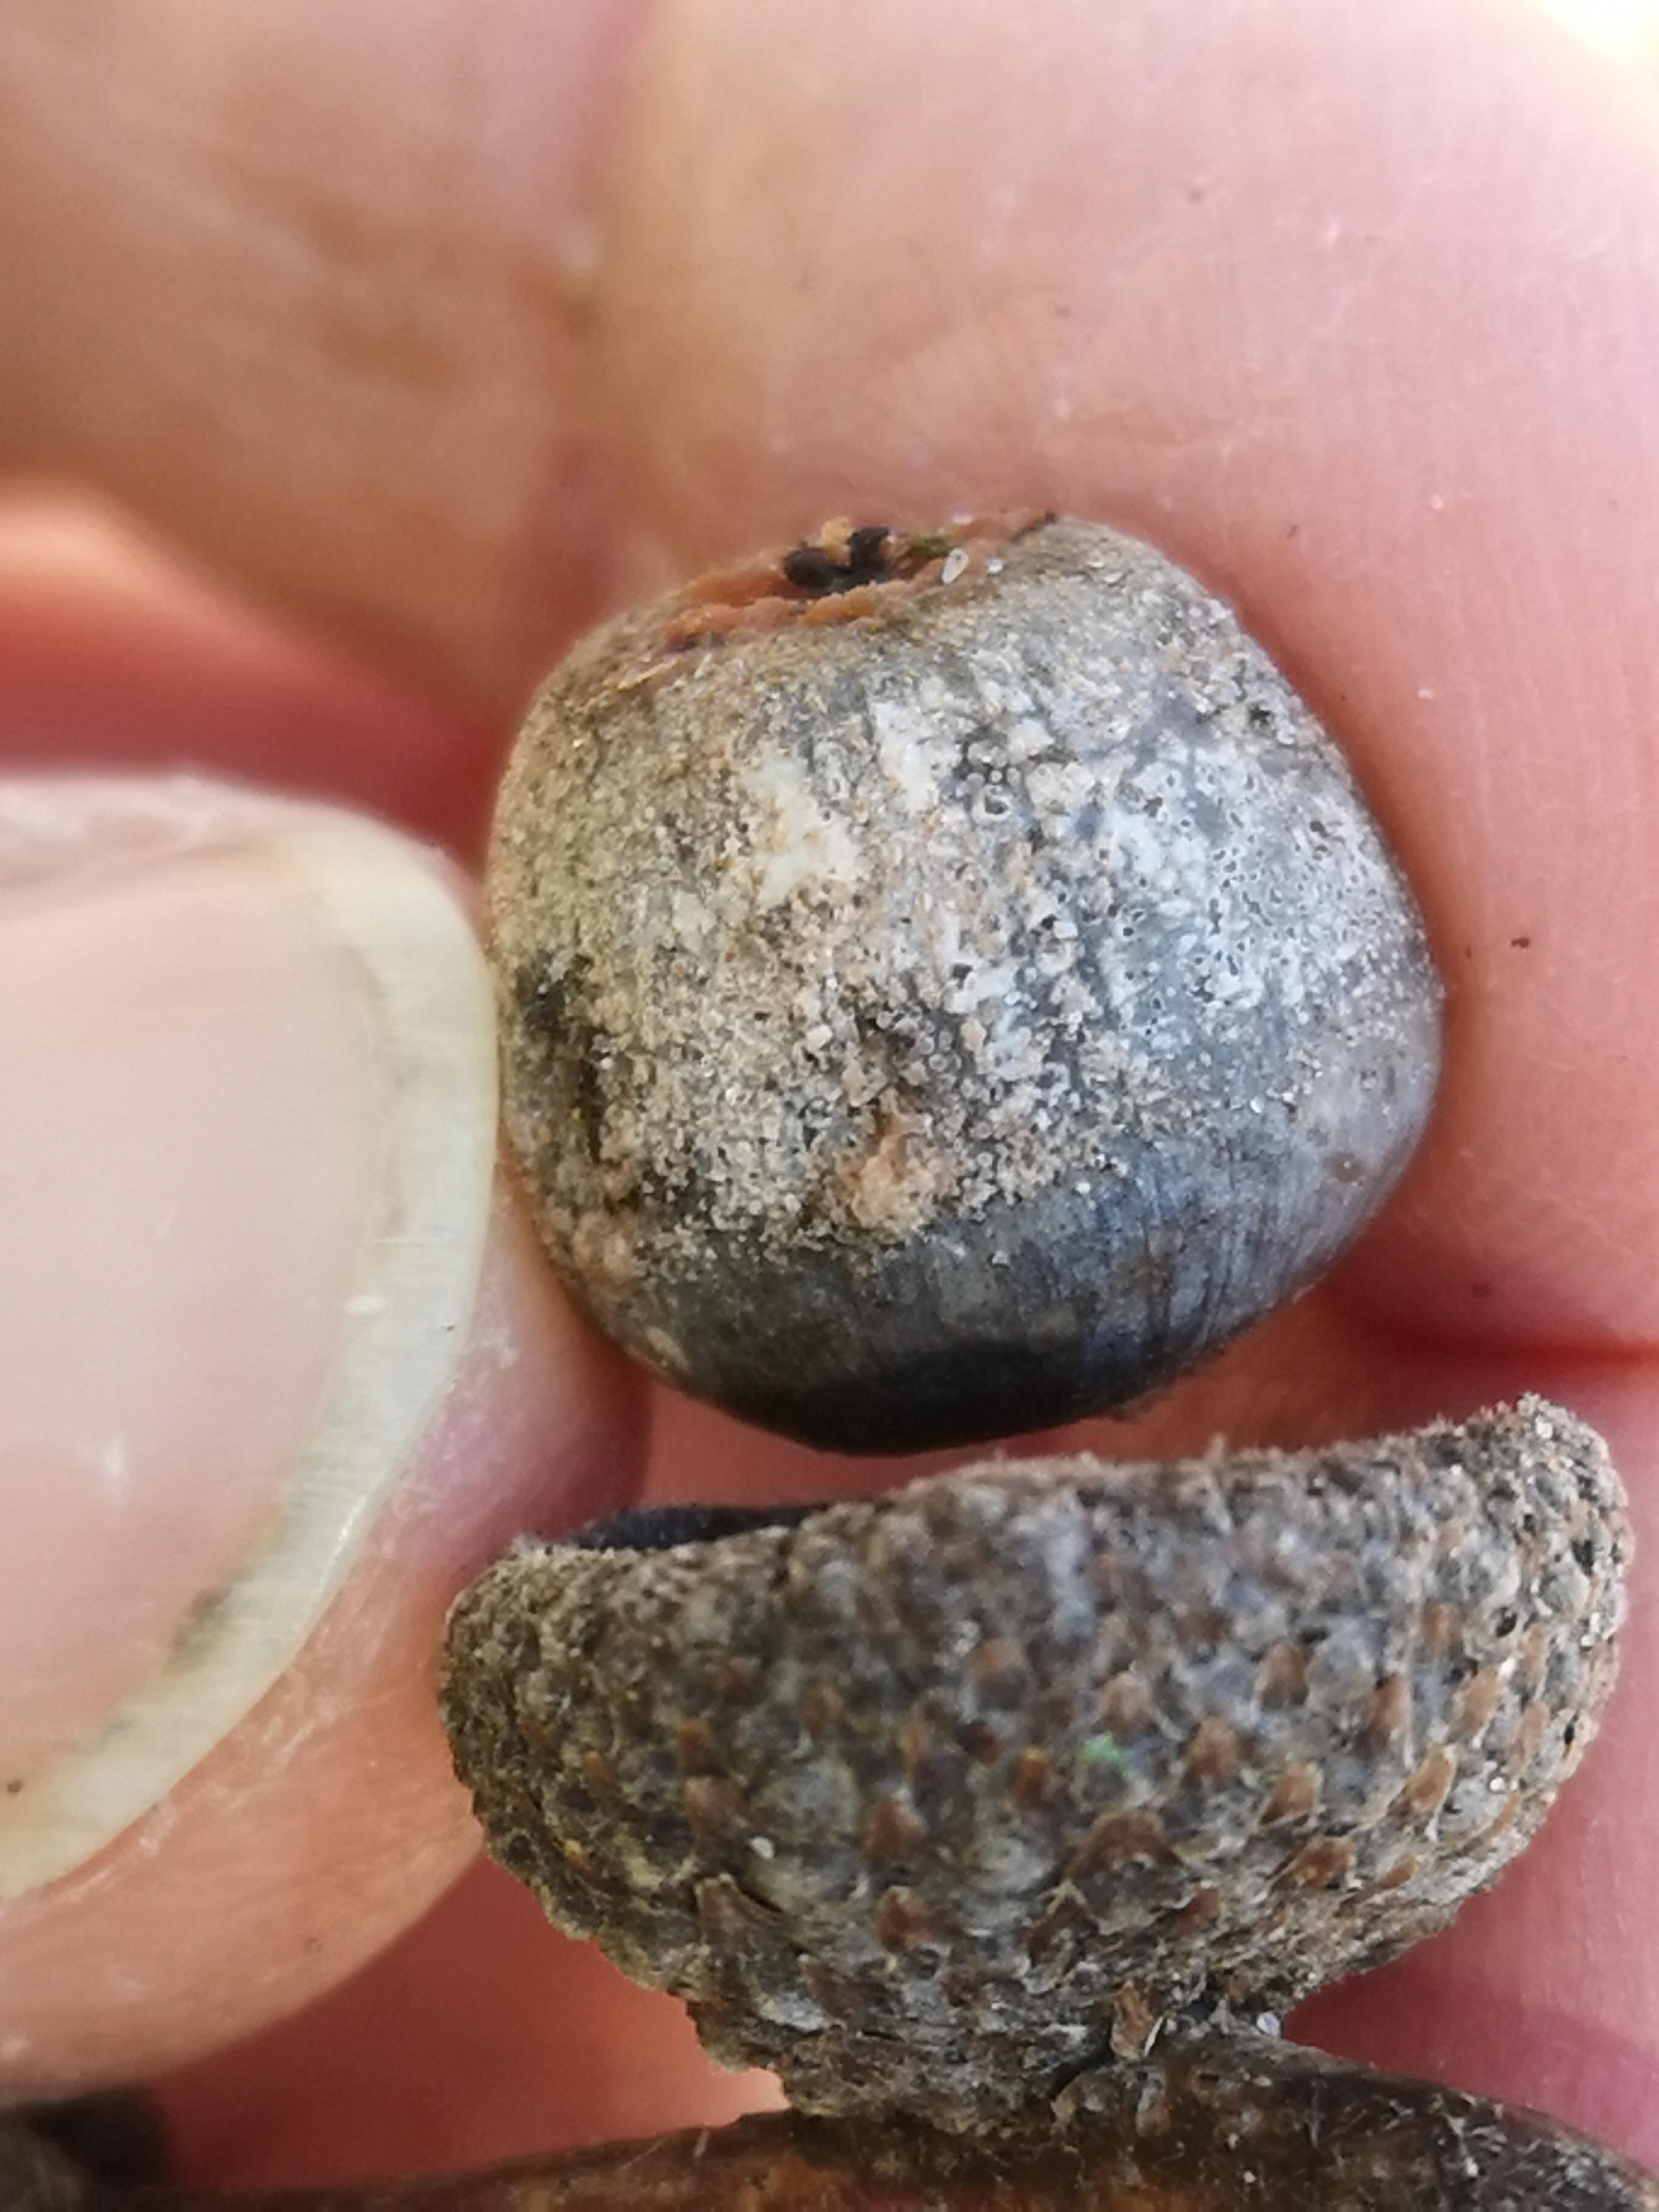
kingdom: Fungi
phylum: Ascomycota
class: Sordariomycetes
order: Hypocreales
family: Nectriaceae
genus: Fusarium
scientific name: Fusarium
